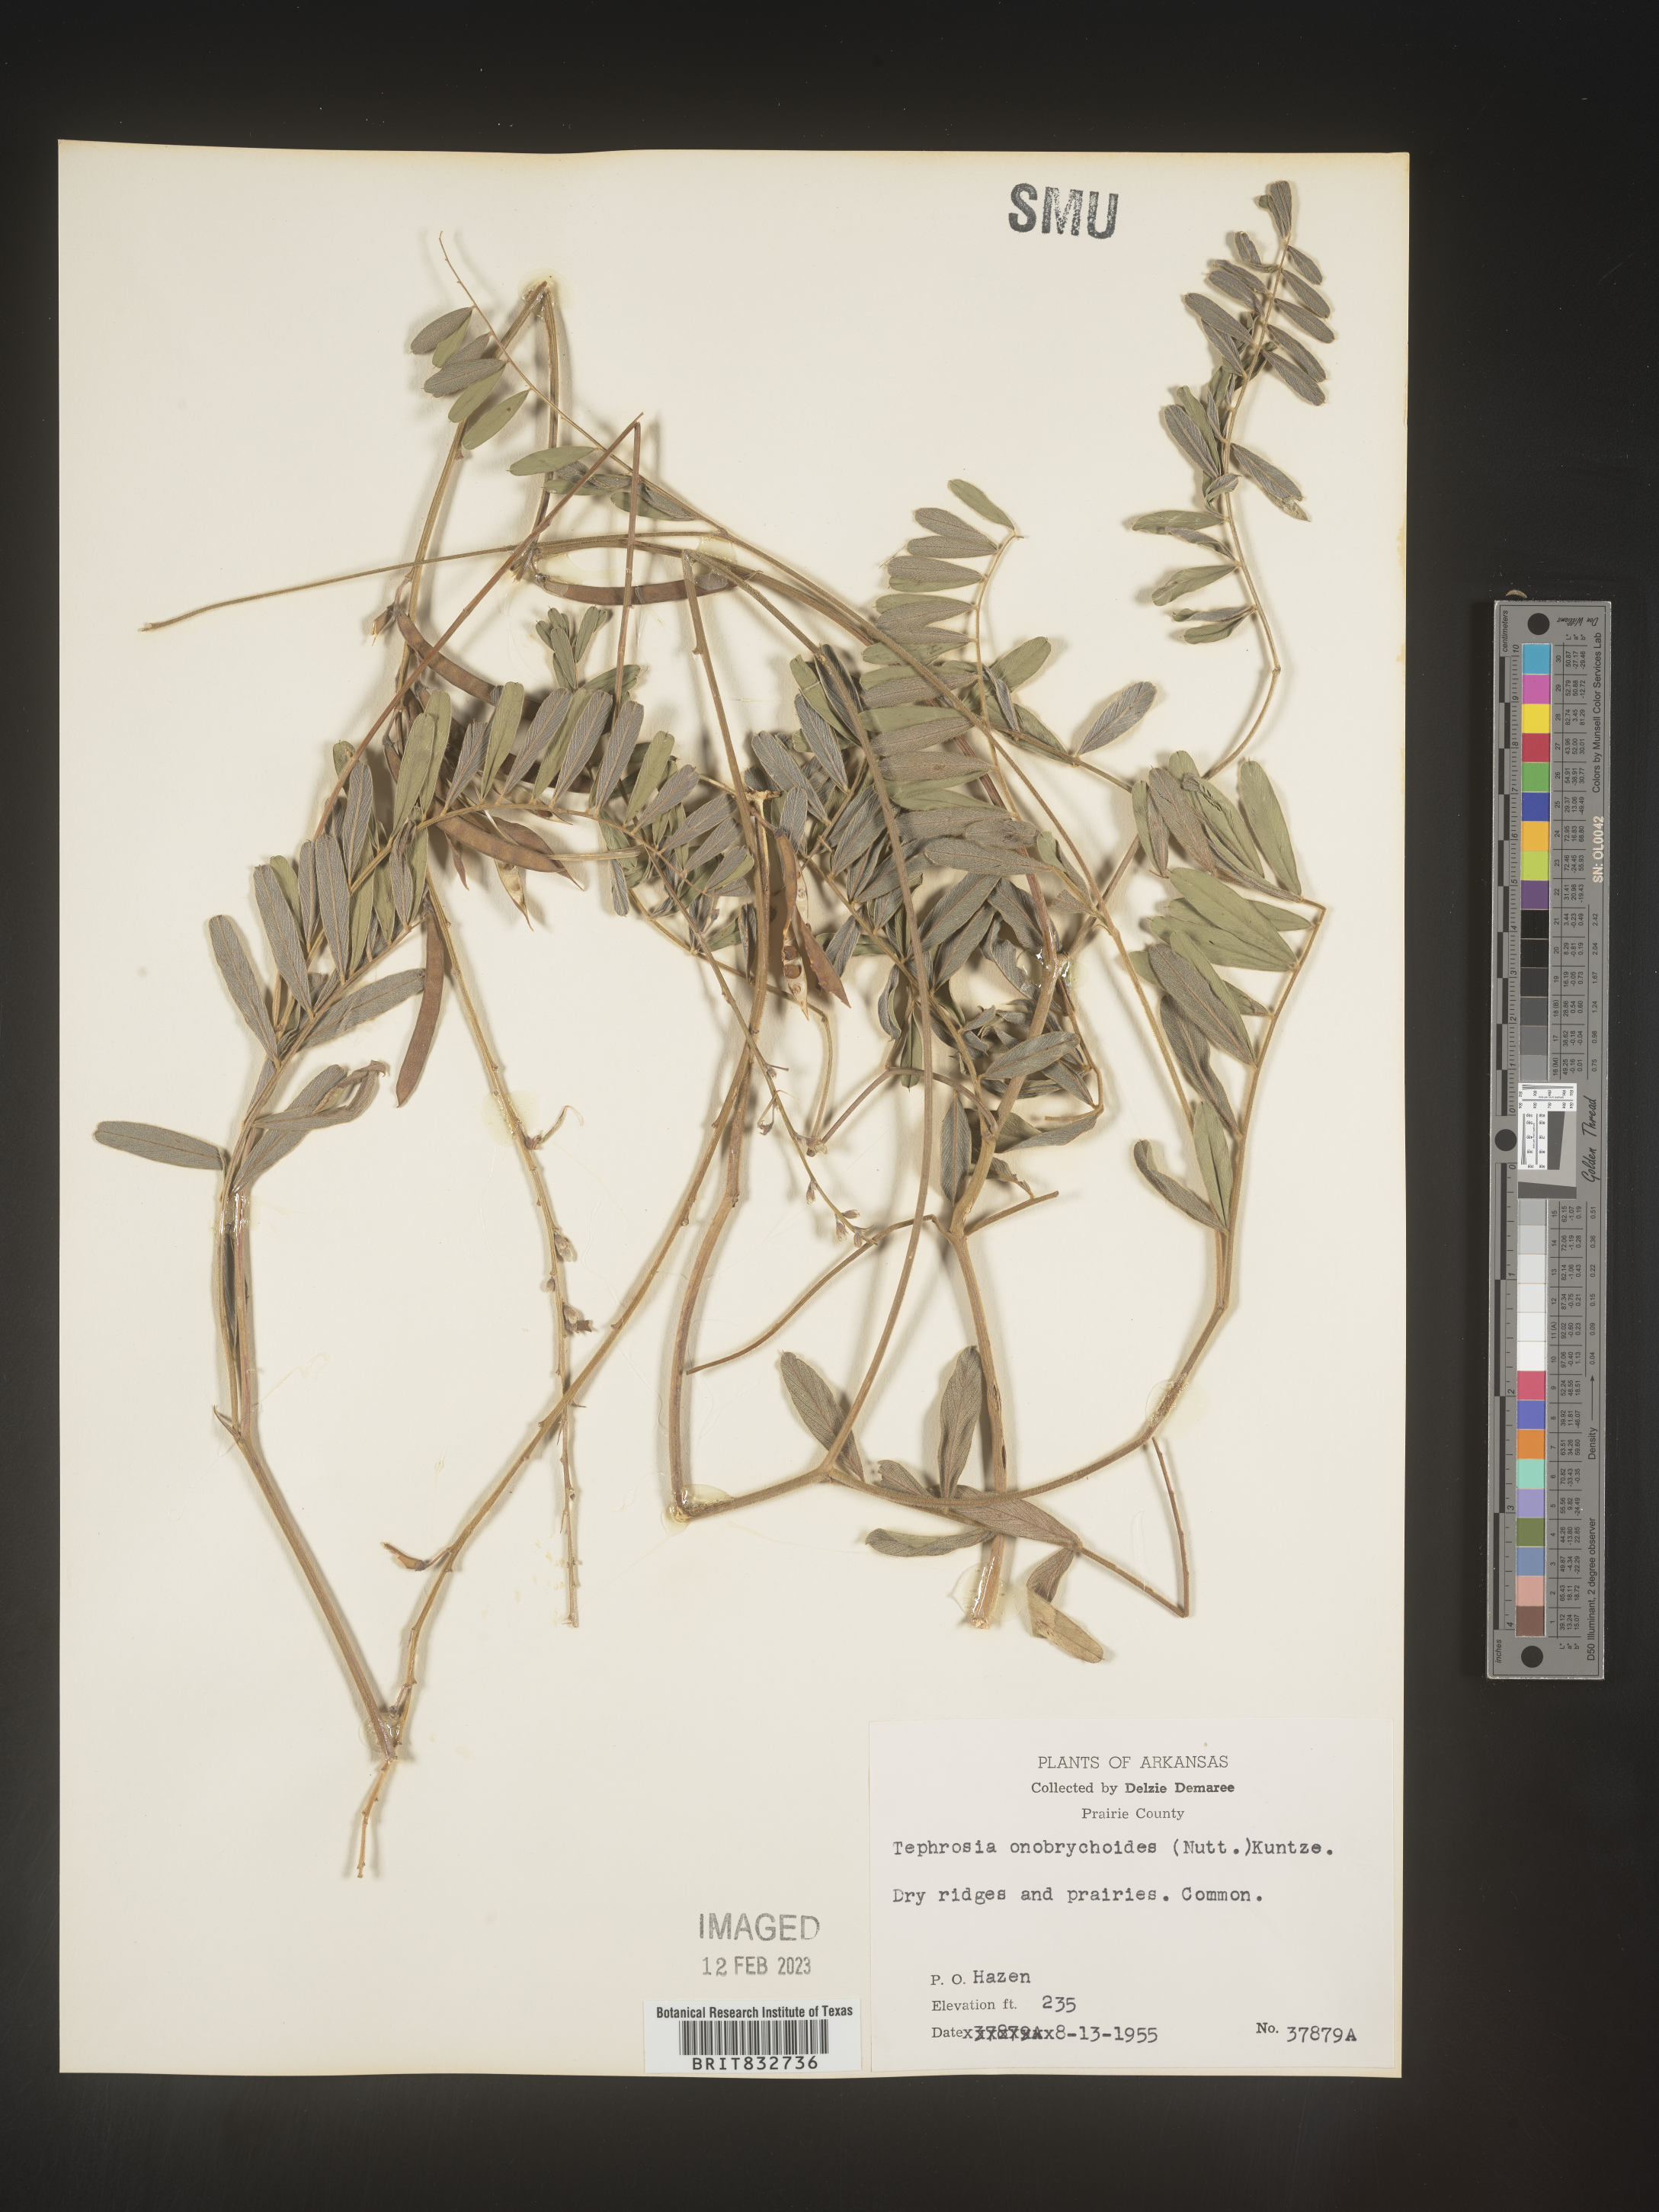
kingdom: Plantae
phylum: Tracheophyta
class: Magnoliopsida
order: Fabales
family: Fabaceae
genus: Tephrosia
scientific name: Tephrosia onobrychoides
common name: Multi-bloom hoary-pea
